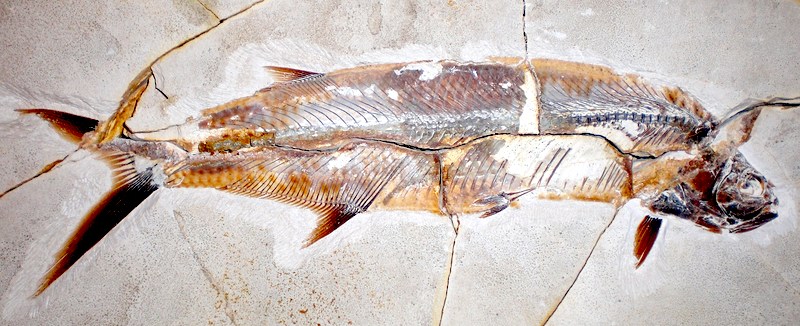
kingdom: Animalia
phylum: Chordata
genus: Thrissops
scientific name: Thrissops formosus
